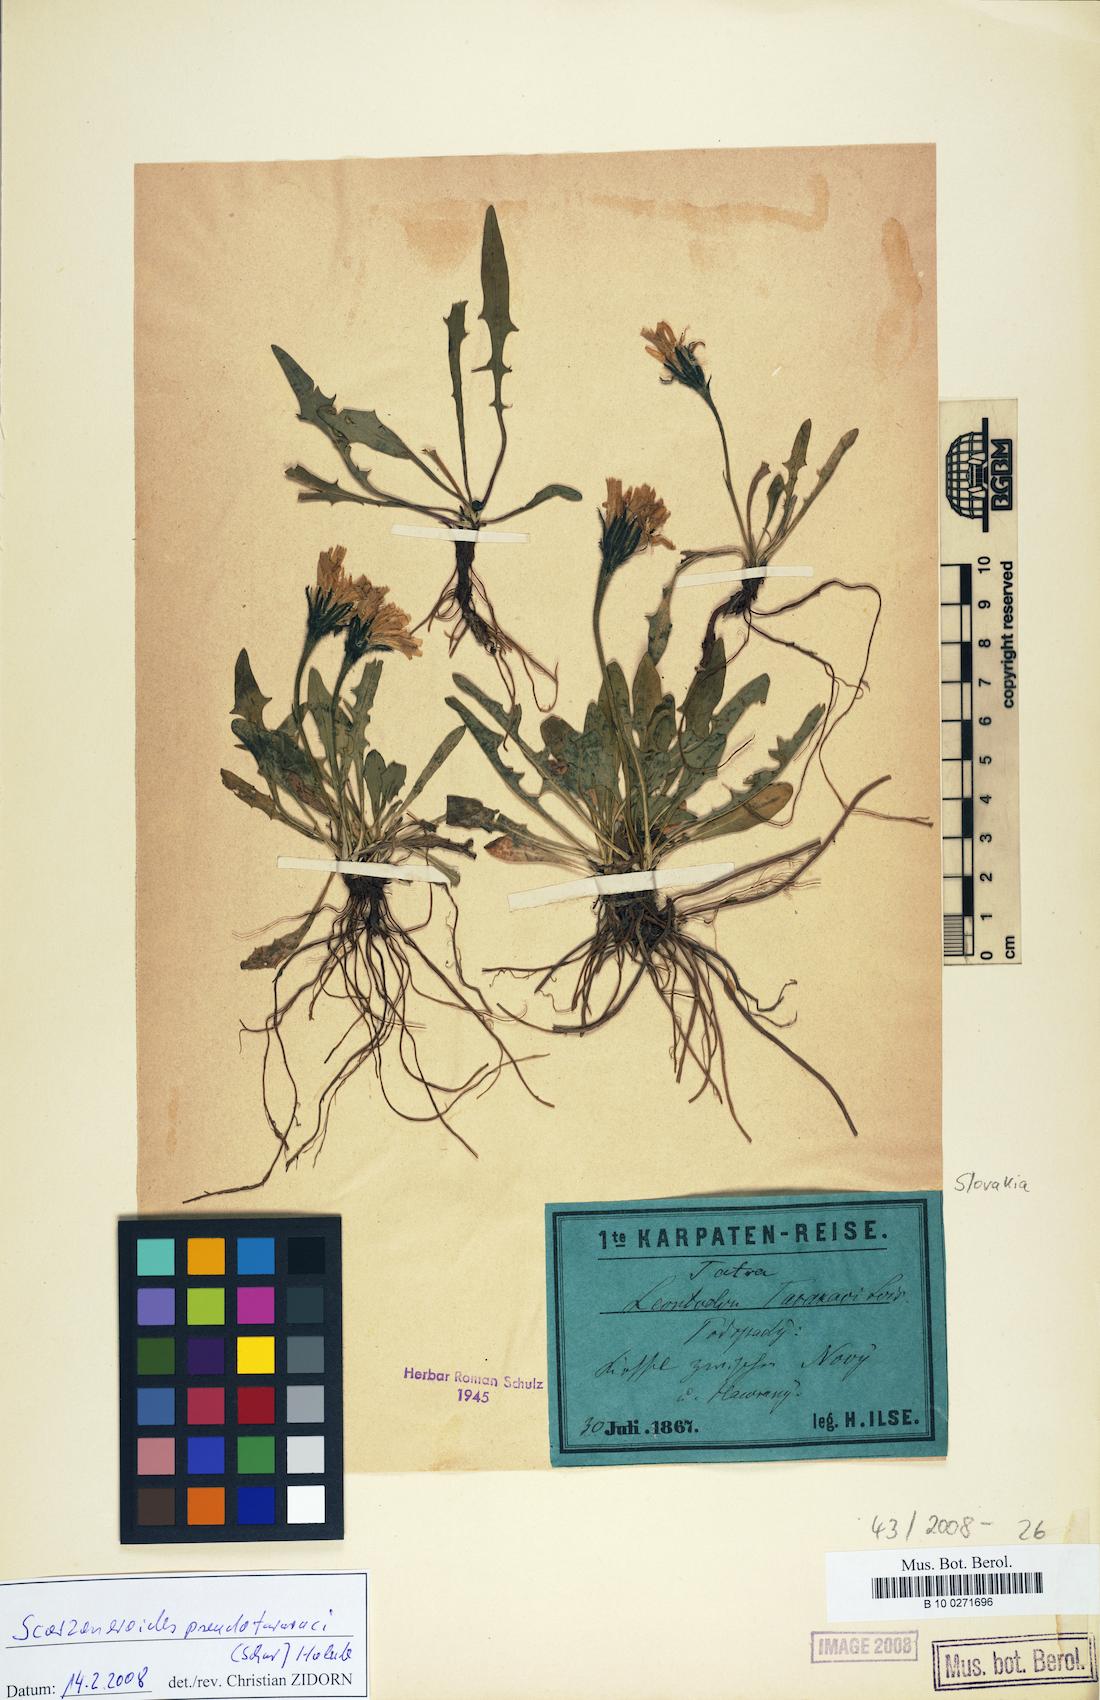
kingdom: Plantae
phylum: Tracheophyta
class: Magnoliopsida
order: Asterales
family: Asteraceae
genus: Scorzoneroides
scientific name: Scorzoneroides pseudotaraxaci
